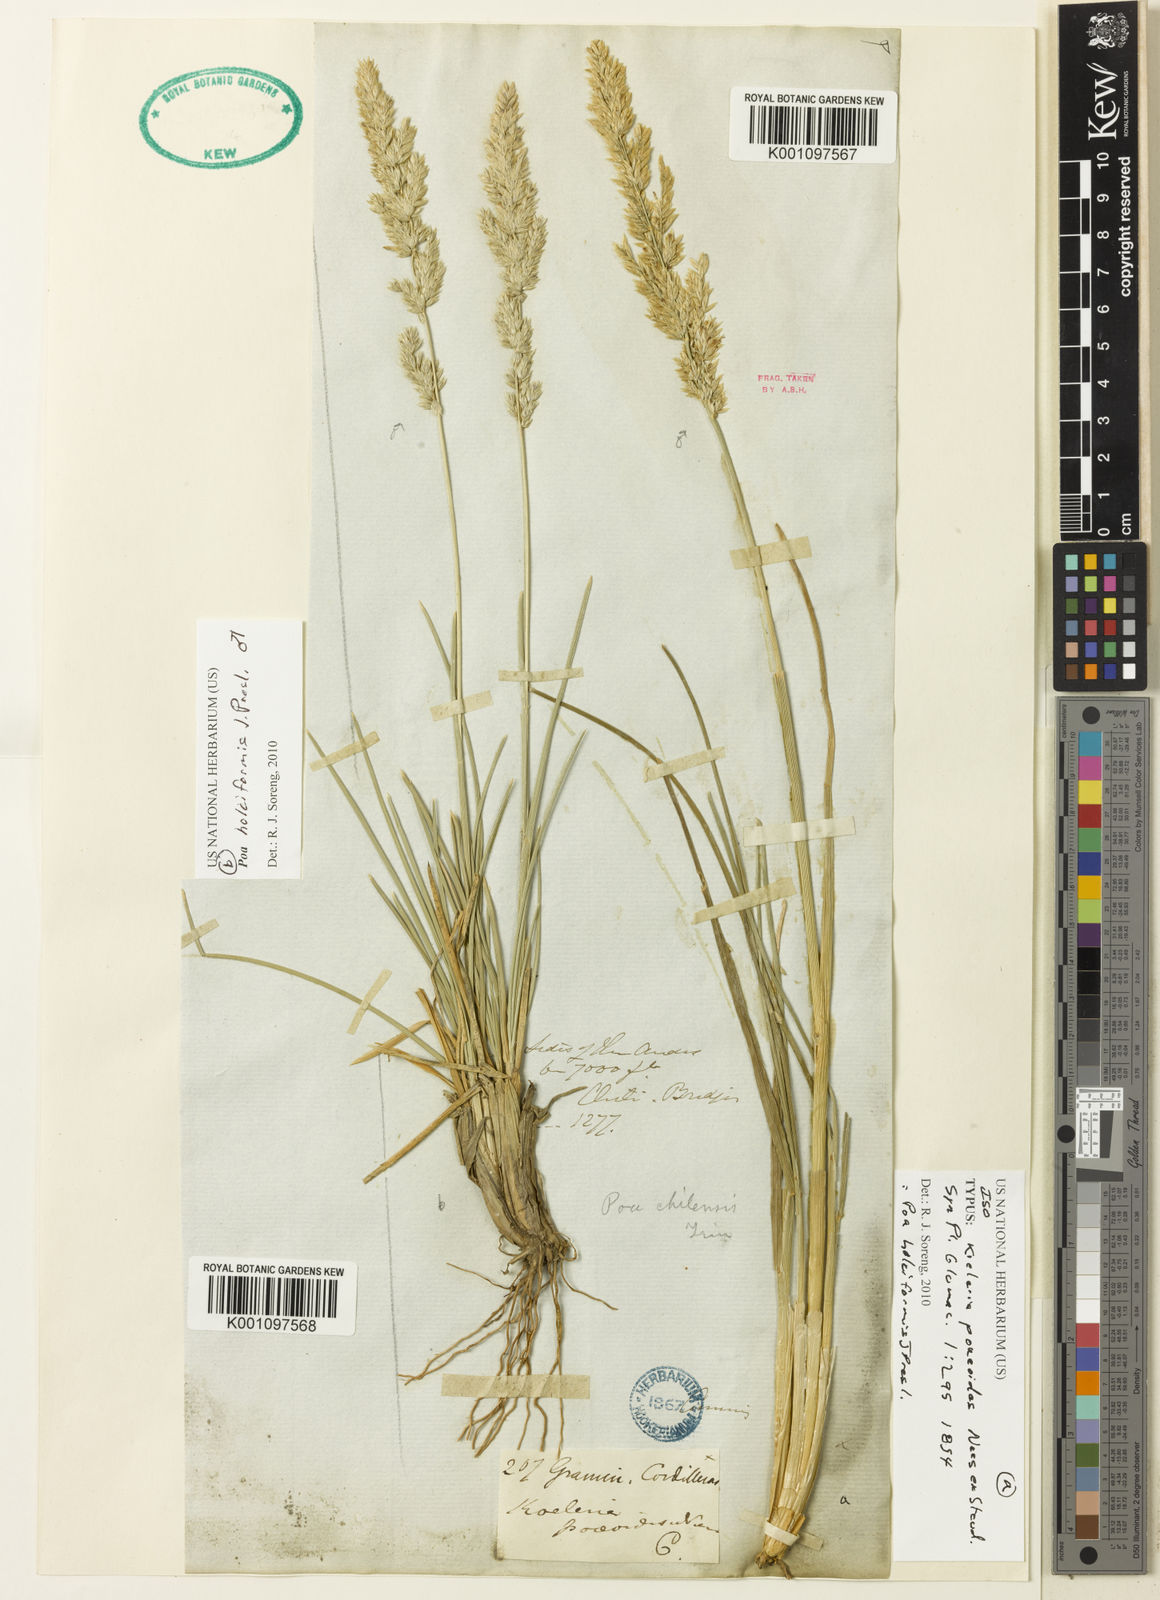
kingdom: Plantae
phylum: Tracheophyta
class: Liliopsida
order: Poales
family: Poaceae
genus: Poa
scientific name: Poa holciformis
